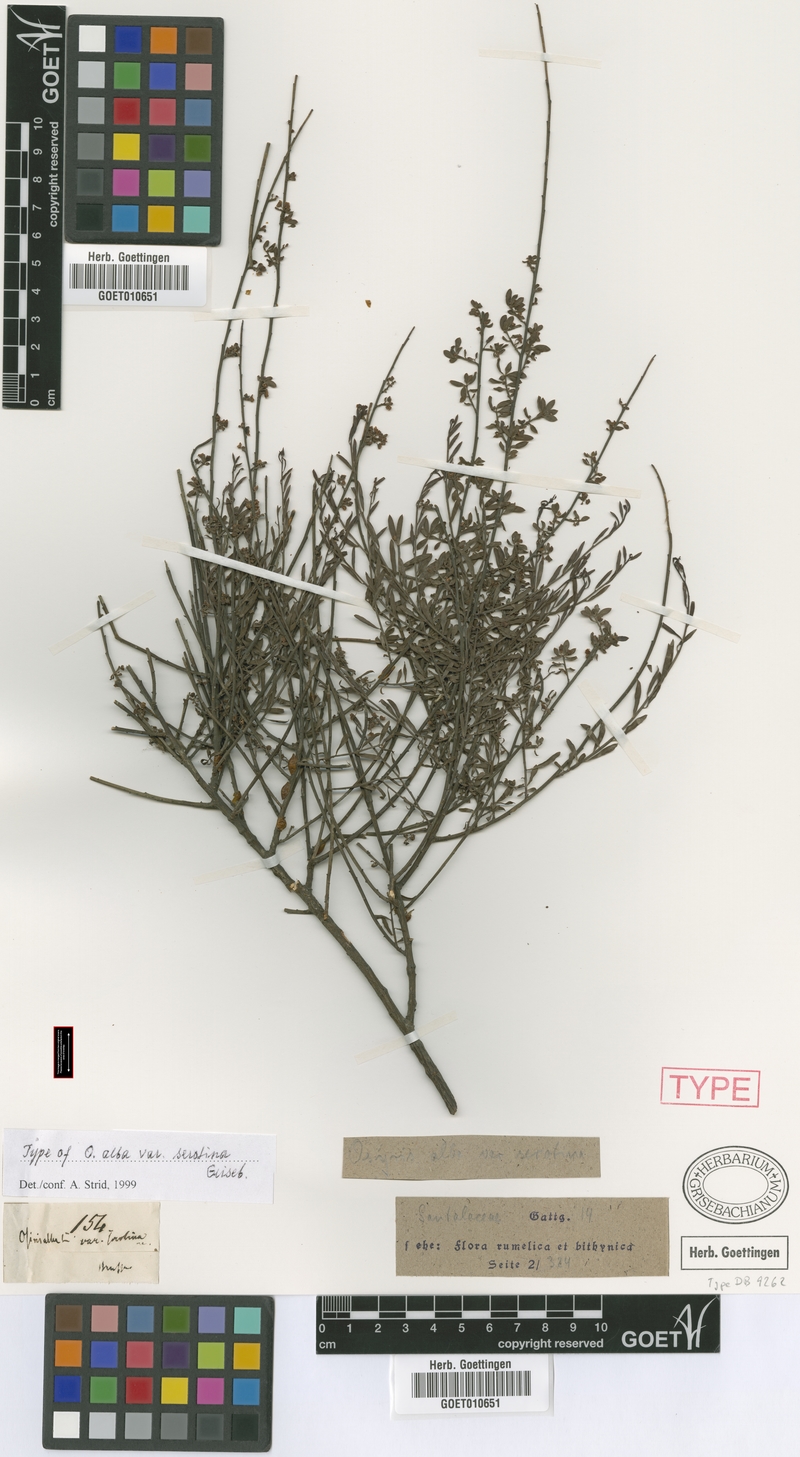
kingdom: Plantae
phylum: Tracheophyta
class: Magnoliopsida
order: Santalales
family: Santalaceae
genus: Osyris
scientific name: Osyris alba
